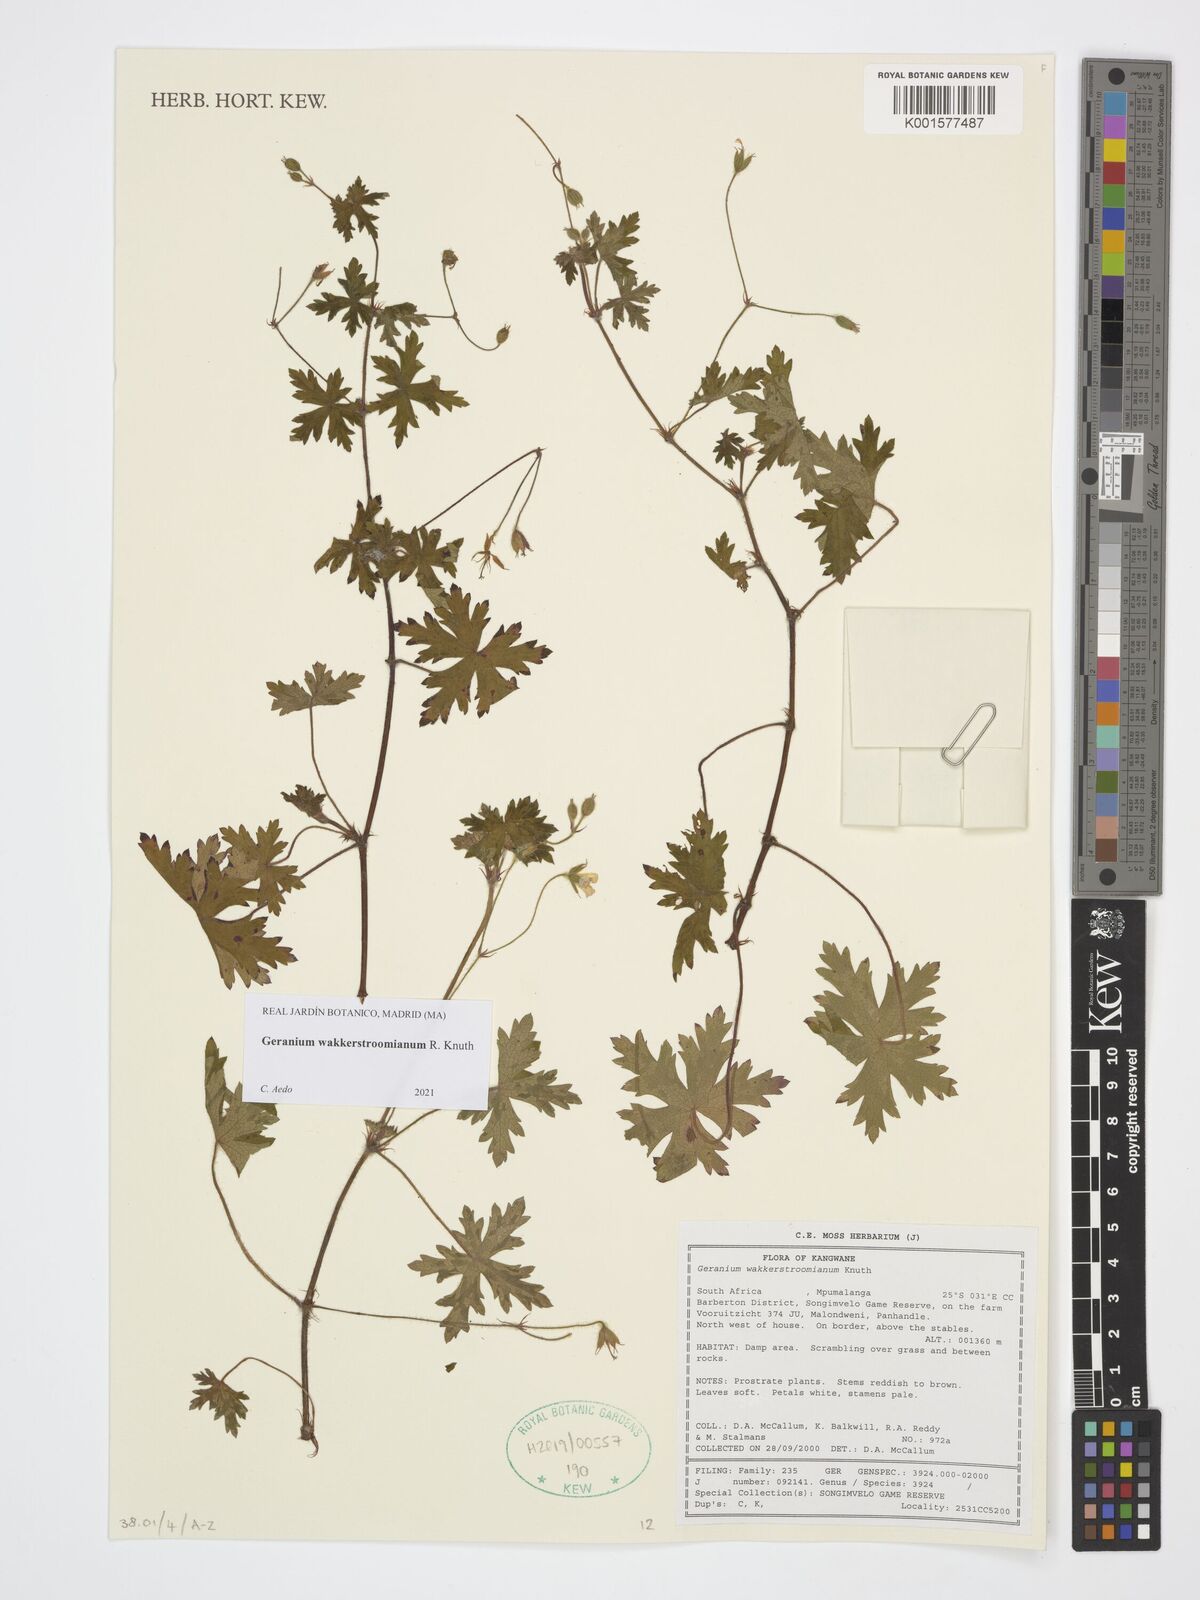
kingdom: Plantae
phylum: Tracheophyta
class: Magnoliopsida
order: Geraniales
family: Geraniaceae
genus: Geranium
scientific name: Geranium wakkerstroomianum
